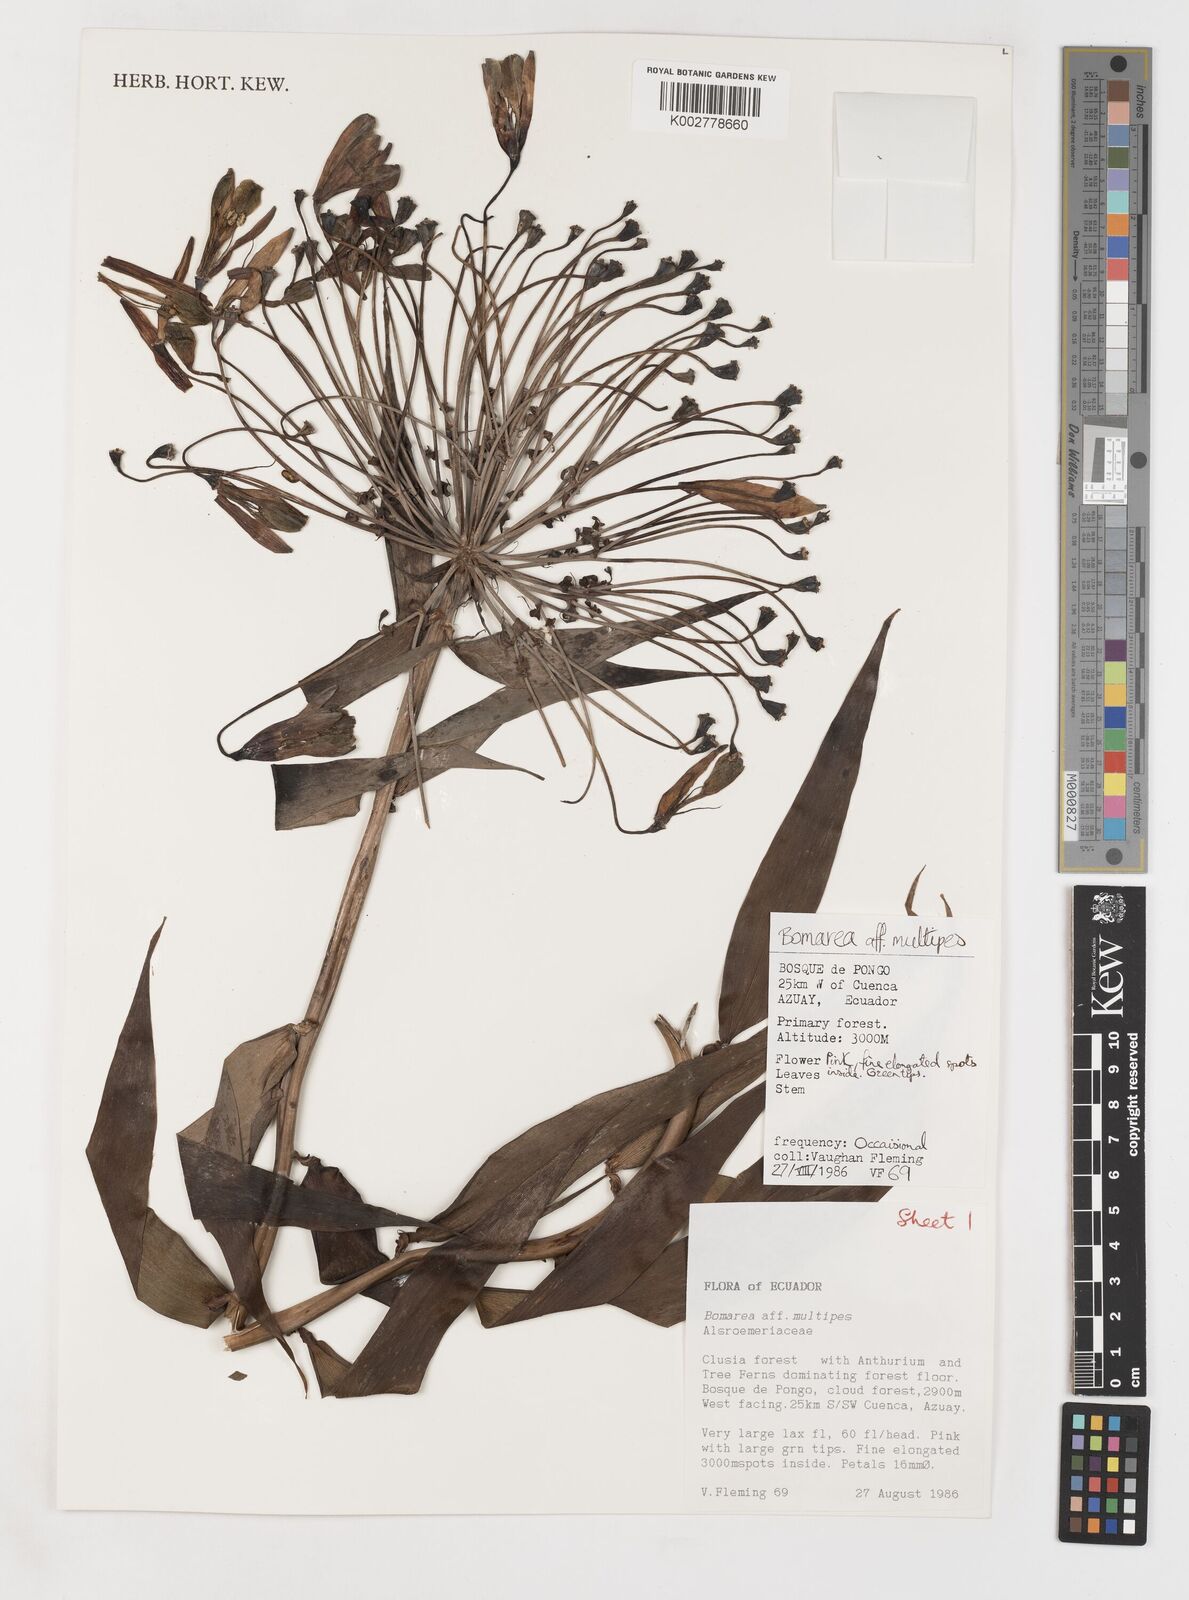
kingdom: Plantae
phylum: Tracheophyta
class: Liliopsida
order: Liliales
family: Alstroemeriaceae
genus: Bomarea
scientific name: Bomarea multipes
